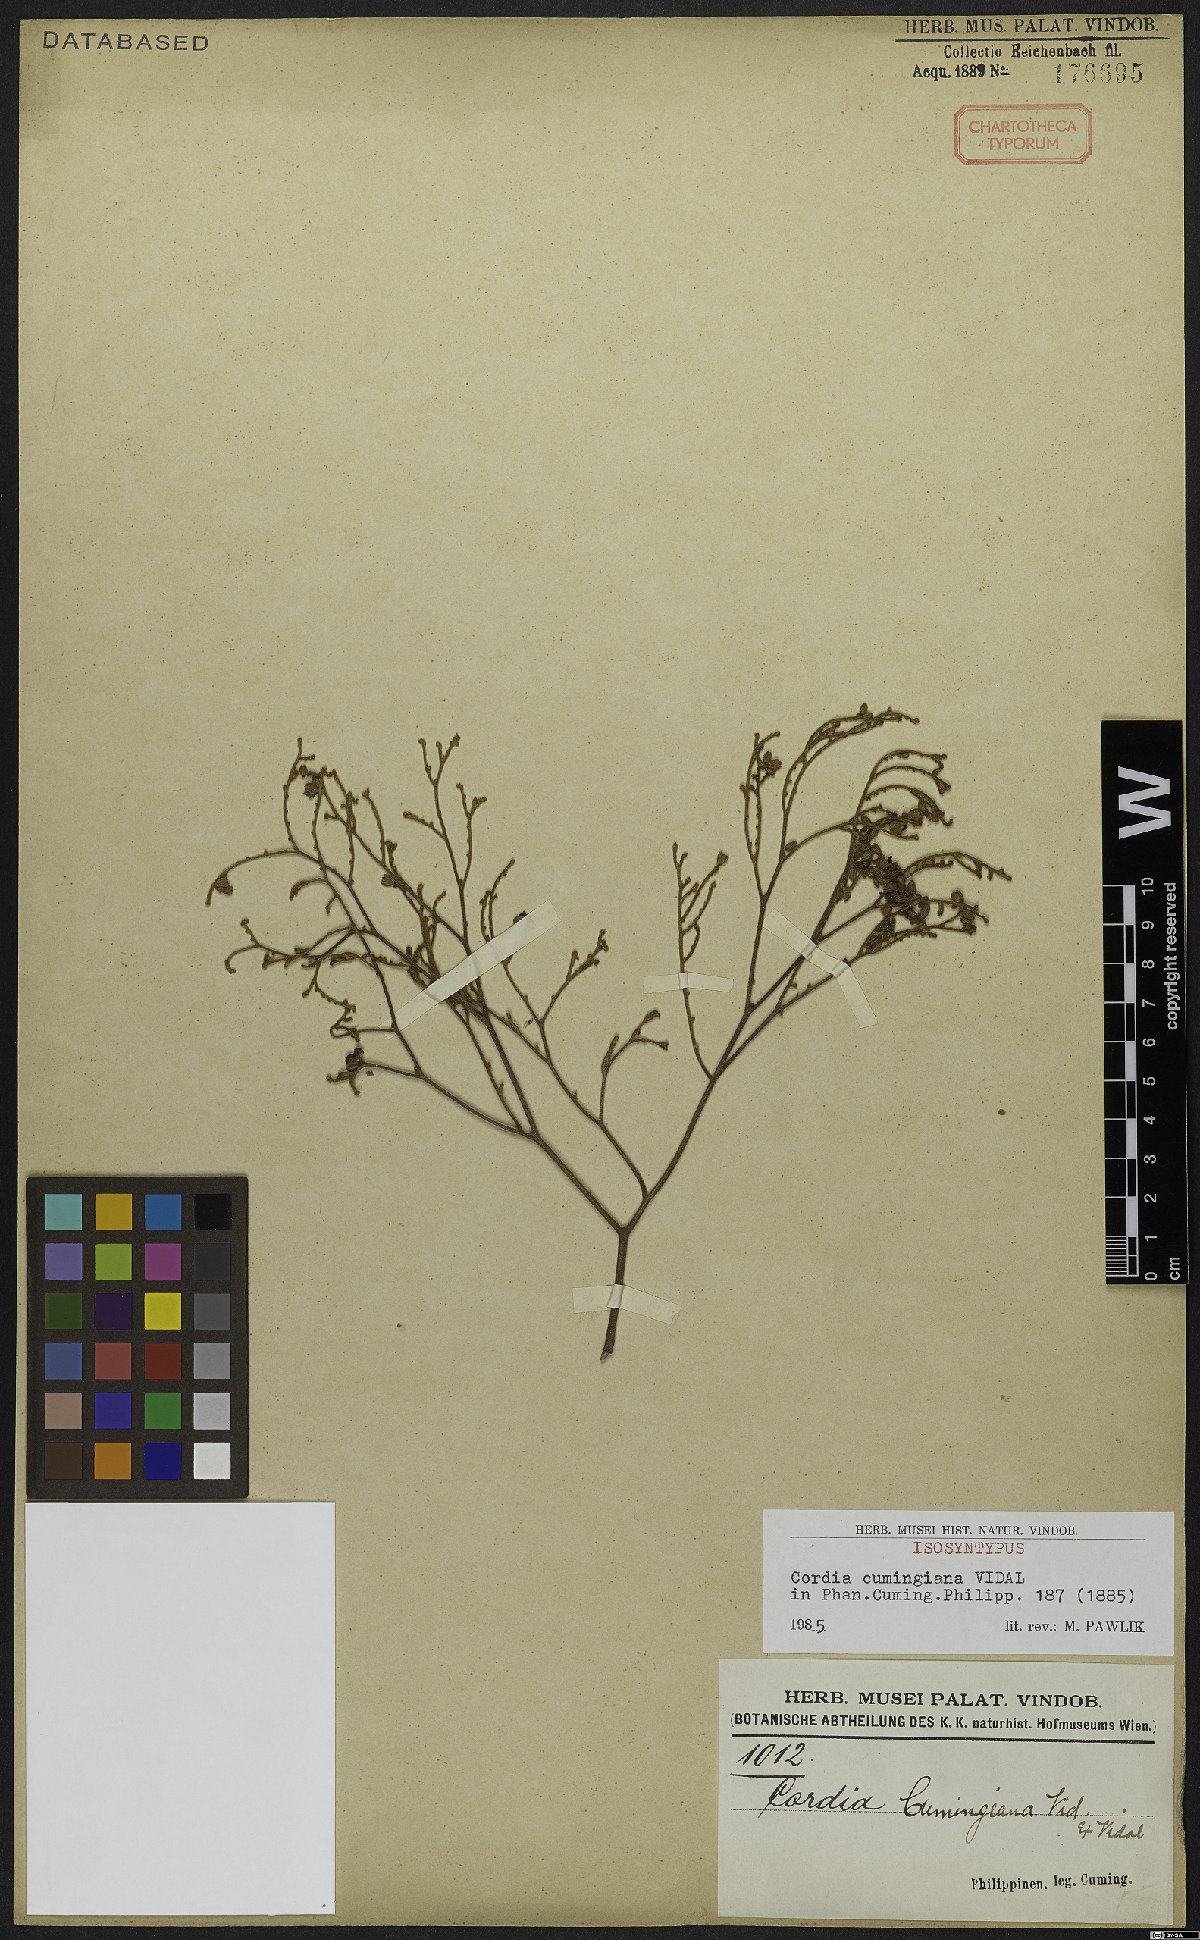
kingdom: Plantae
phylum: Tracheophyta
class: Magnoliopsida
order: Boraginales
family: Cordiaceae
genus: Cordia
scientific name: Cordia aspera
